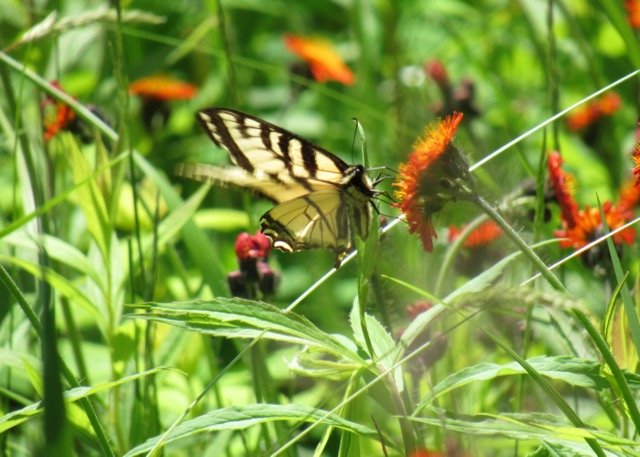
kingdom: Animalia
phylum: Arthropoda
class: Insecta
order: Lepidoptera
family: Papilionidae
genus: Pterourus
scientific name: Pterourus canadensis
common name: Canadian Tiger Swallowtail
